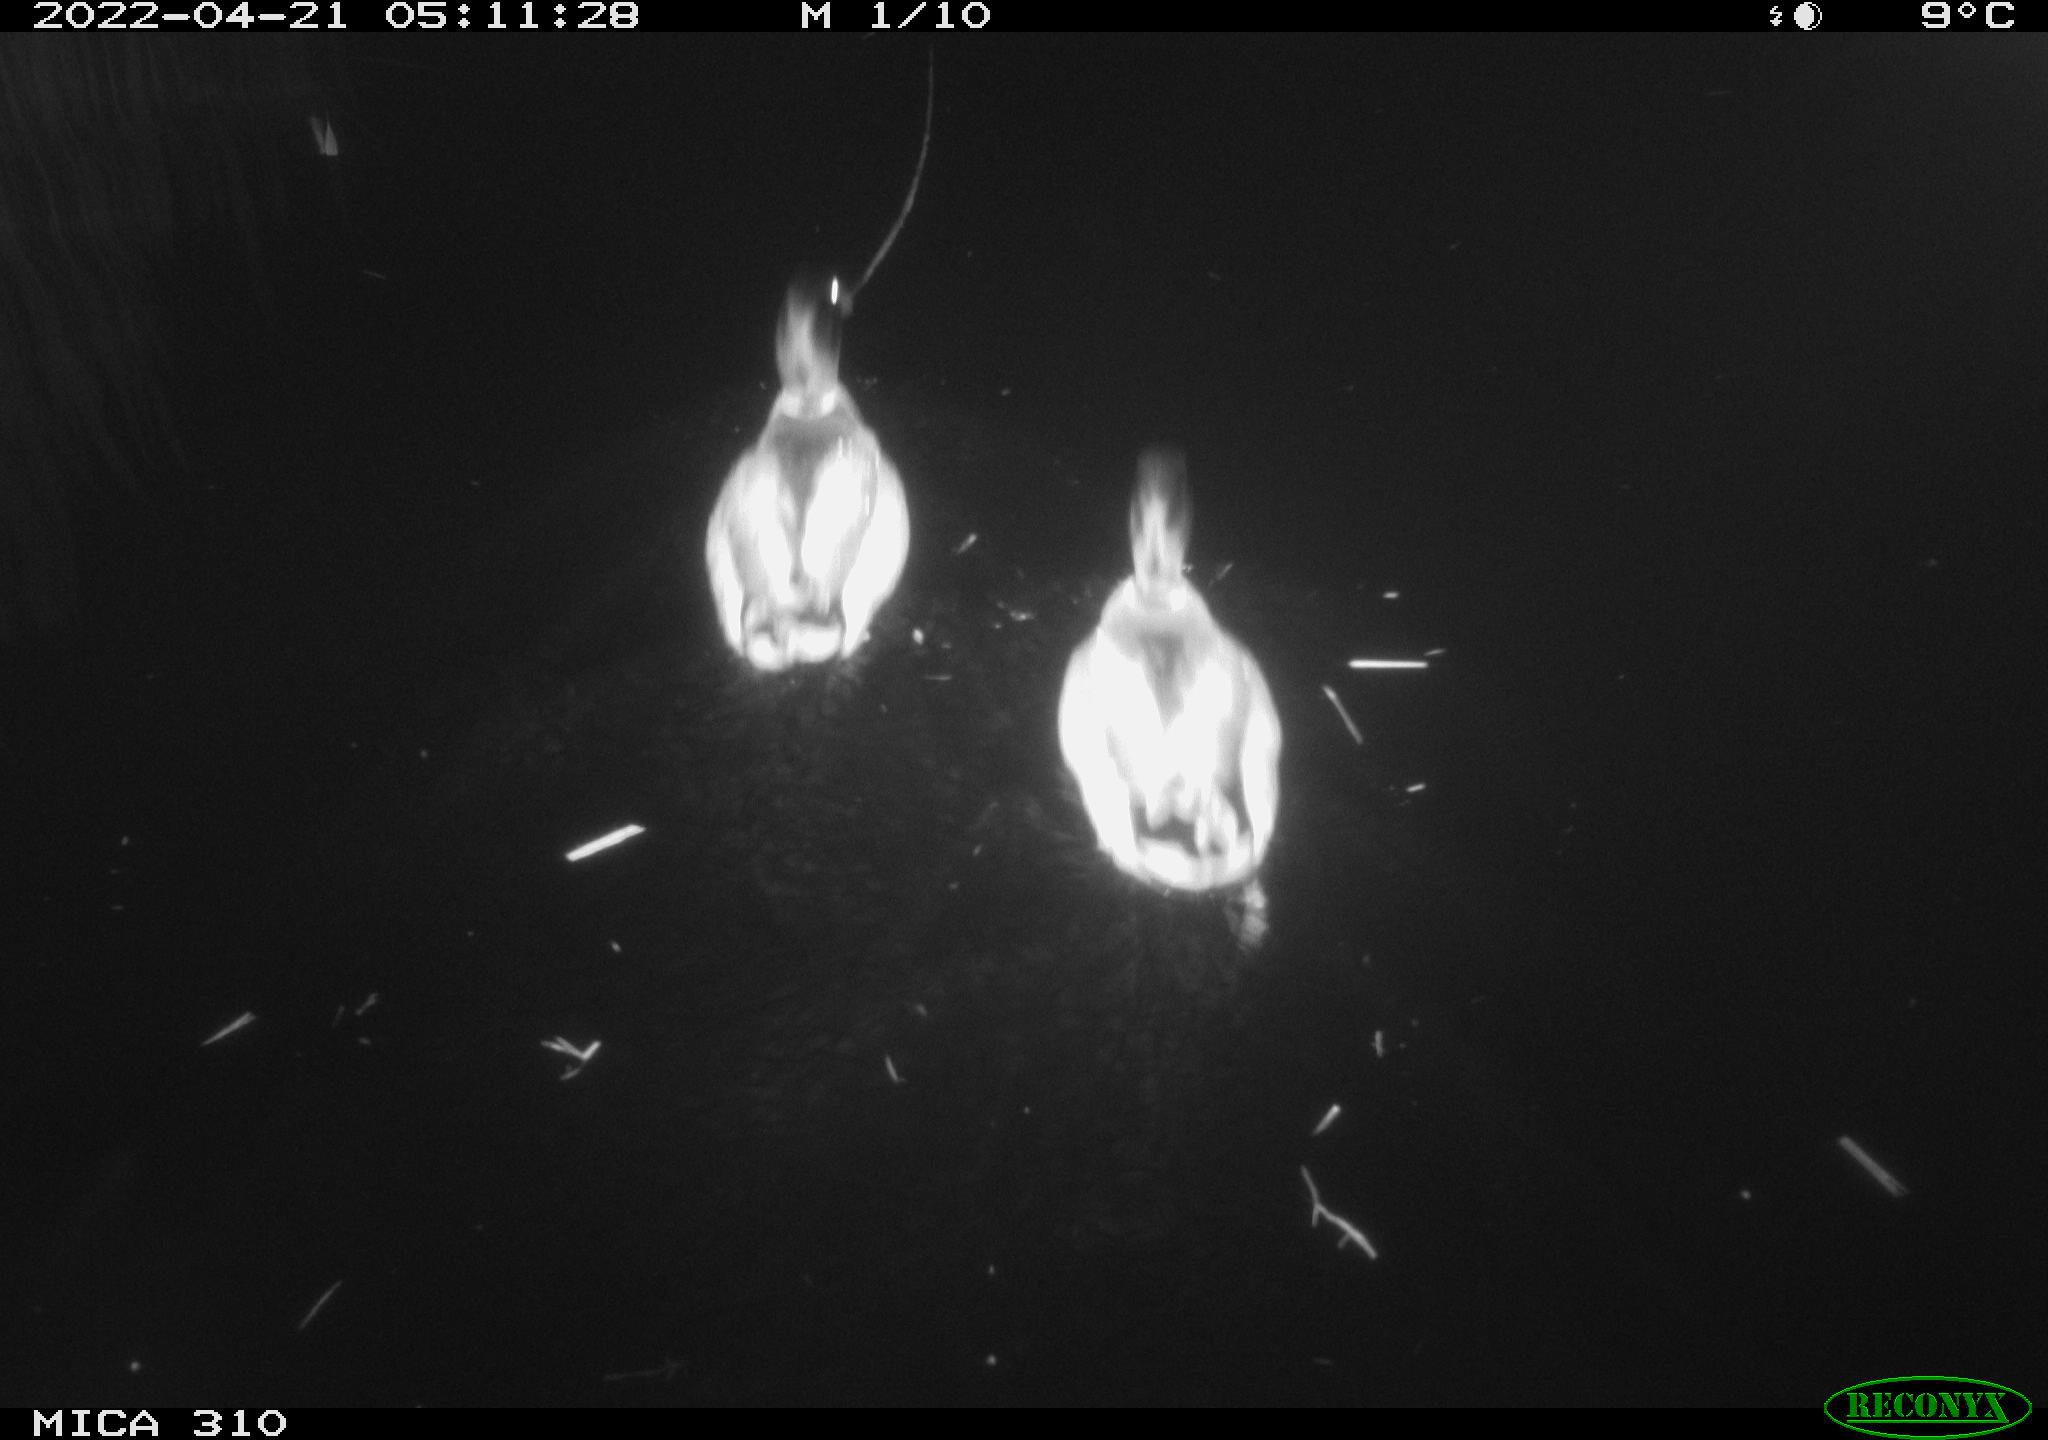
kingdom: Animalia
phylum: Chordata
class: Aves
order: Anseriformes
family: Anatidae
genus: Anas
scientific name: Anas platyrhynchos
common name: Mallard
